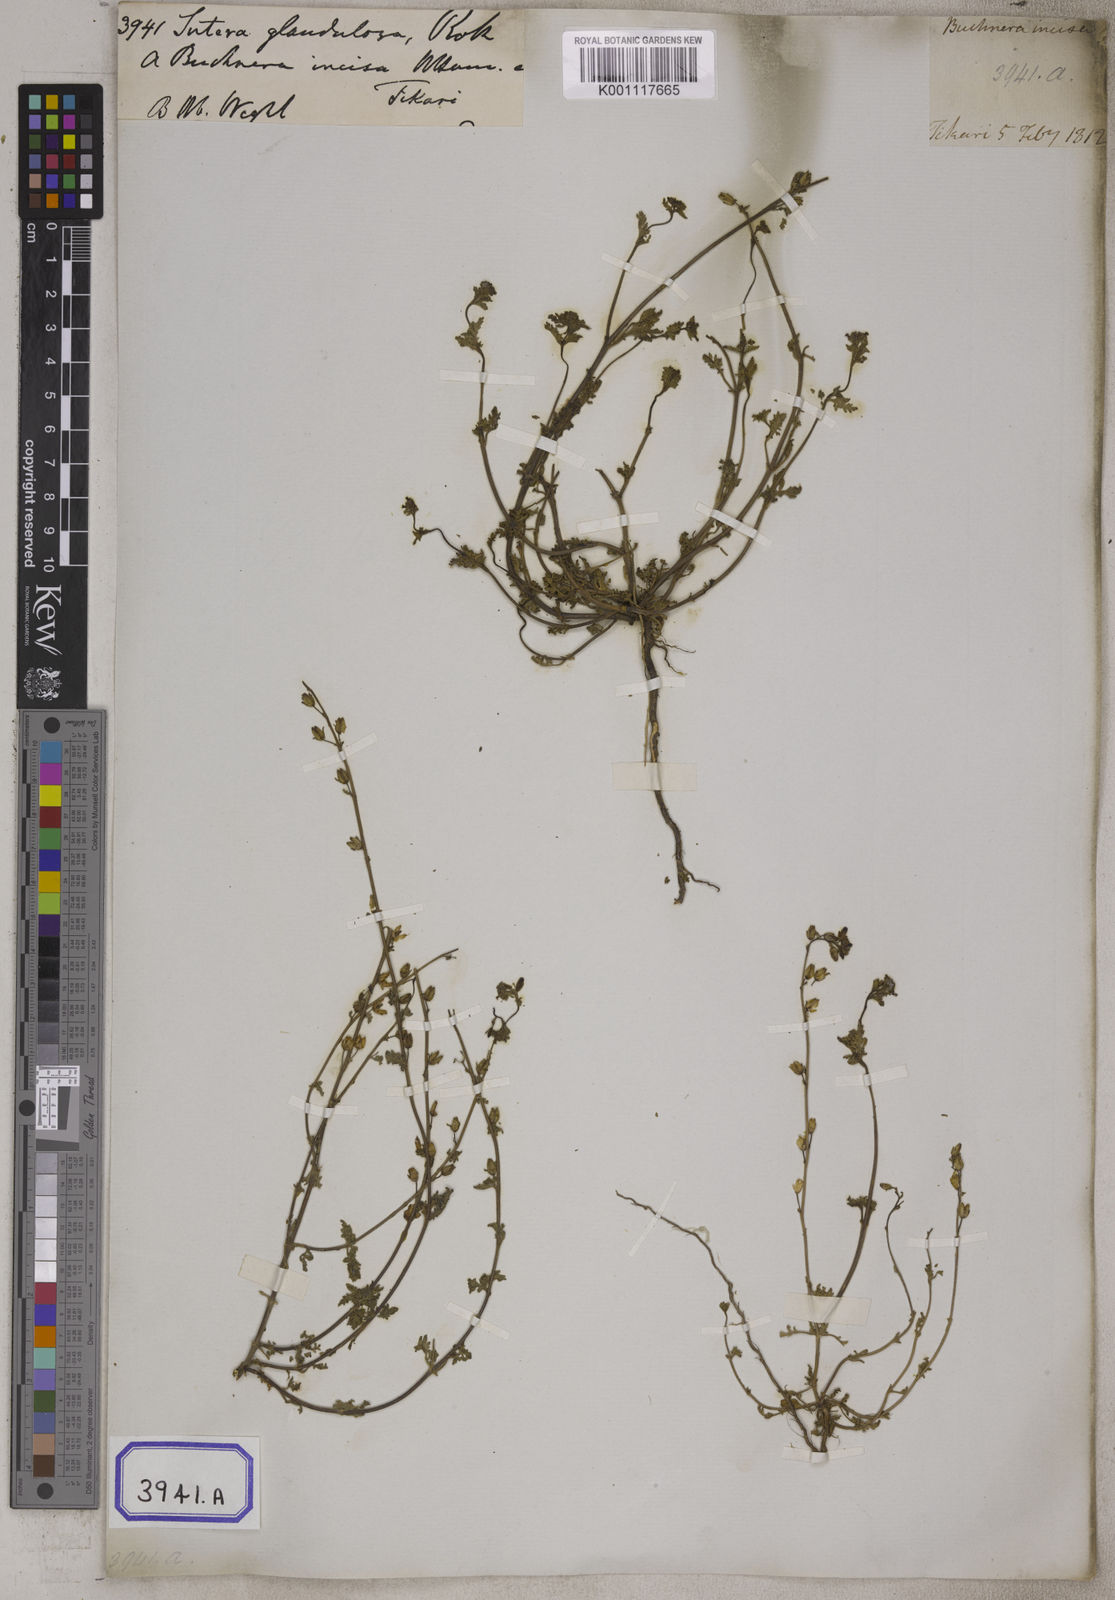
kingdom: Plantae
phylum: Tracheophyta
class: Magnoliopsida
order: Lamiales
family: Scrophulariaceae
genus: Jamesbrittenia
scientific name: Jamesbrittenia dissecta
